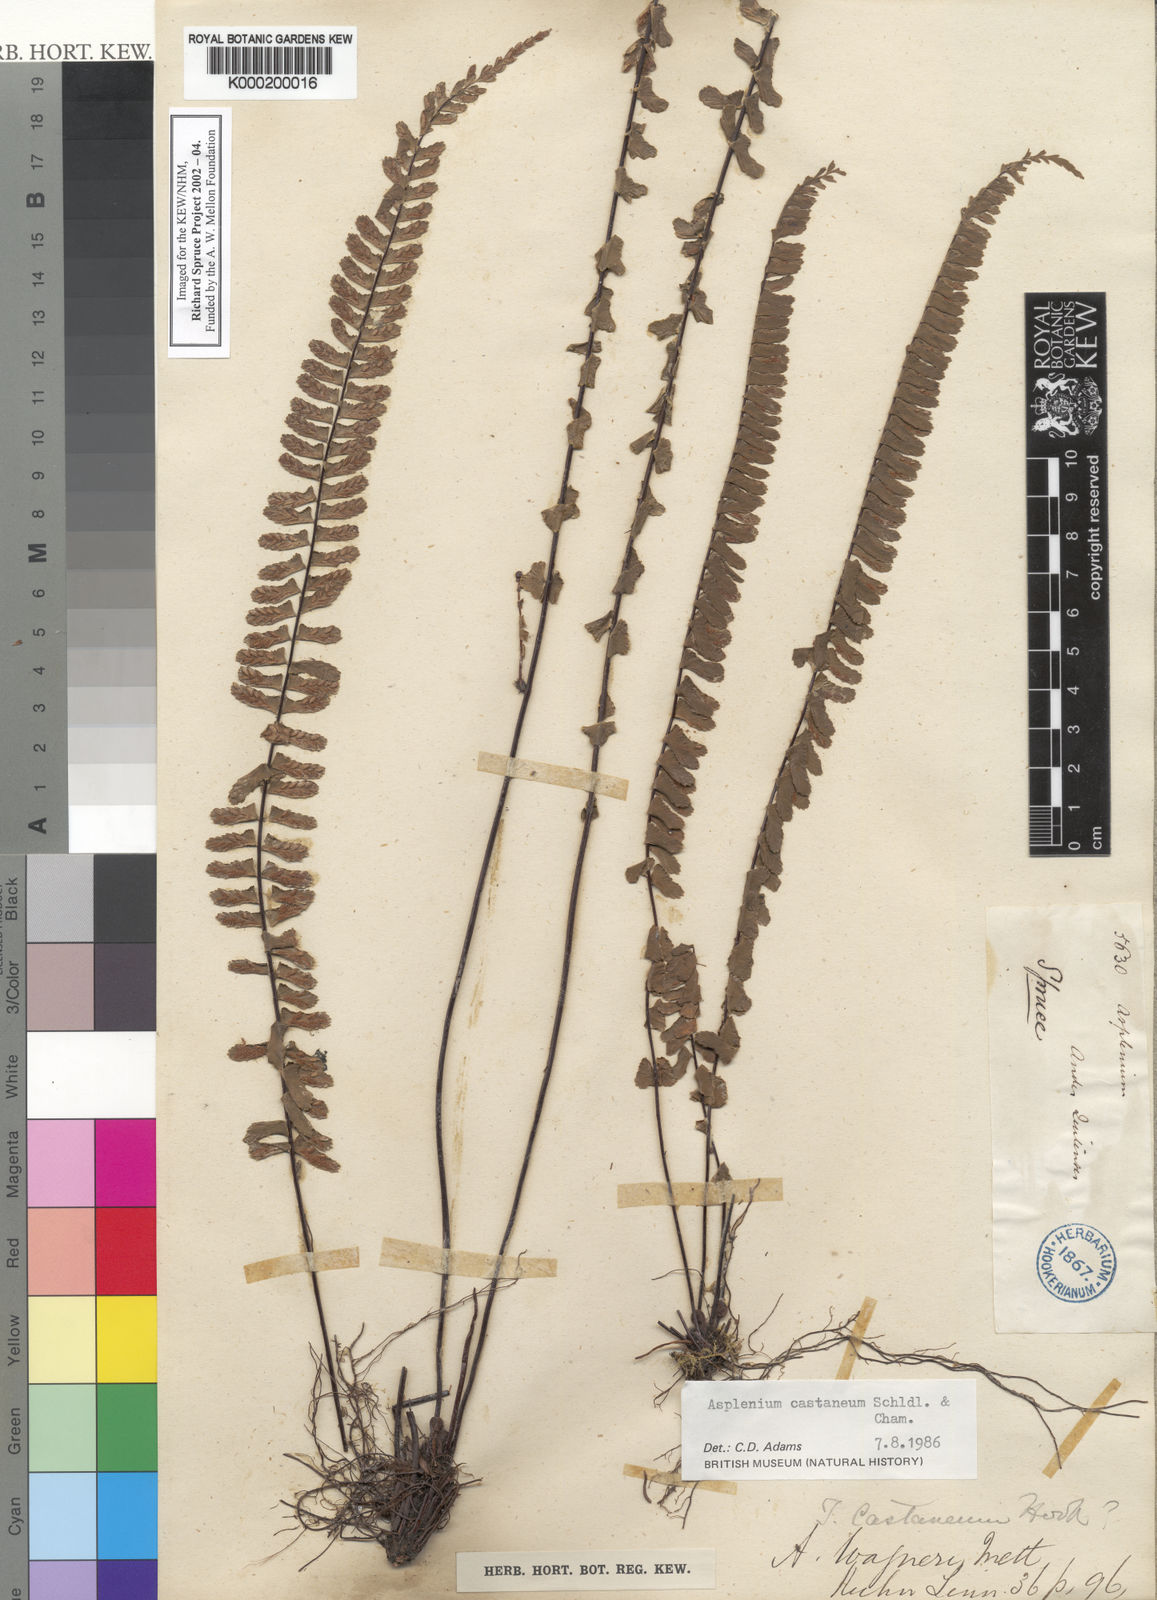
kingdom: Plantae
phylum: Tracheophyta
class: Polypodiopsida
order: Polypodiales
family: Aspleniaceae
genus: Asplenium
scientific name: Asplenium castaneum
